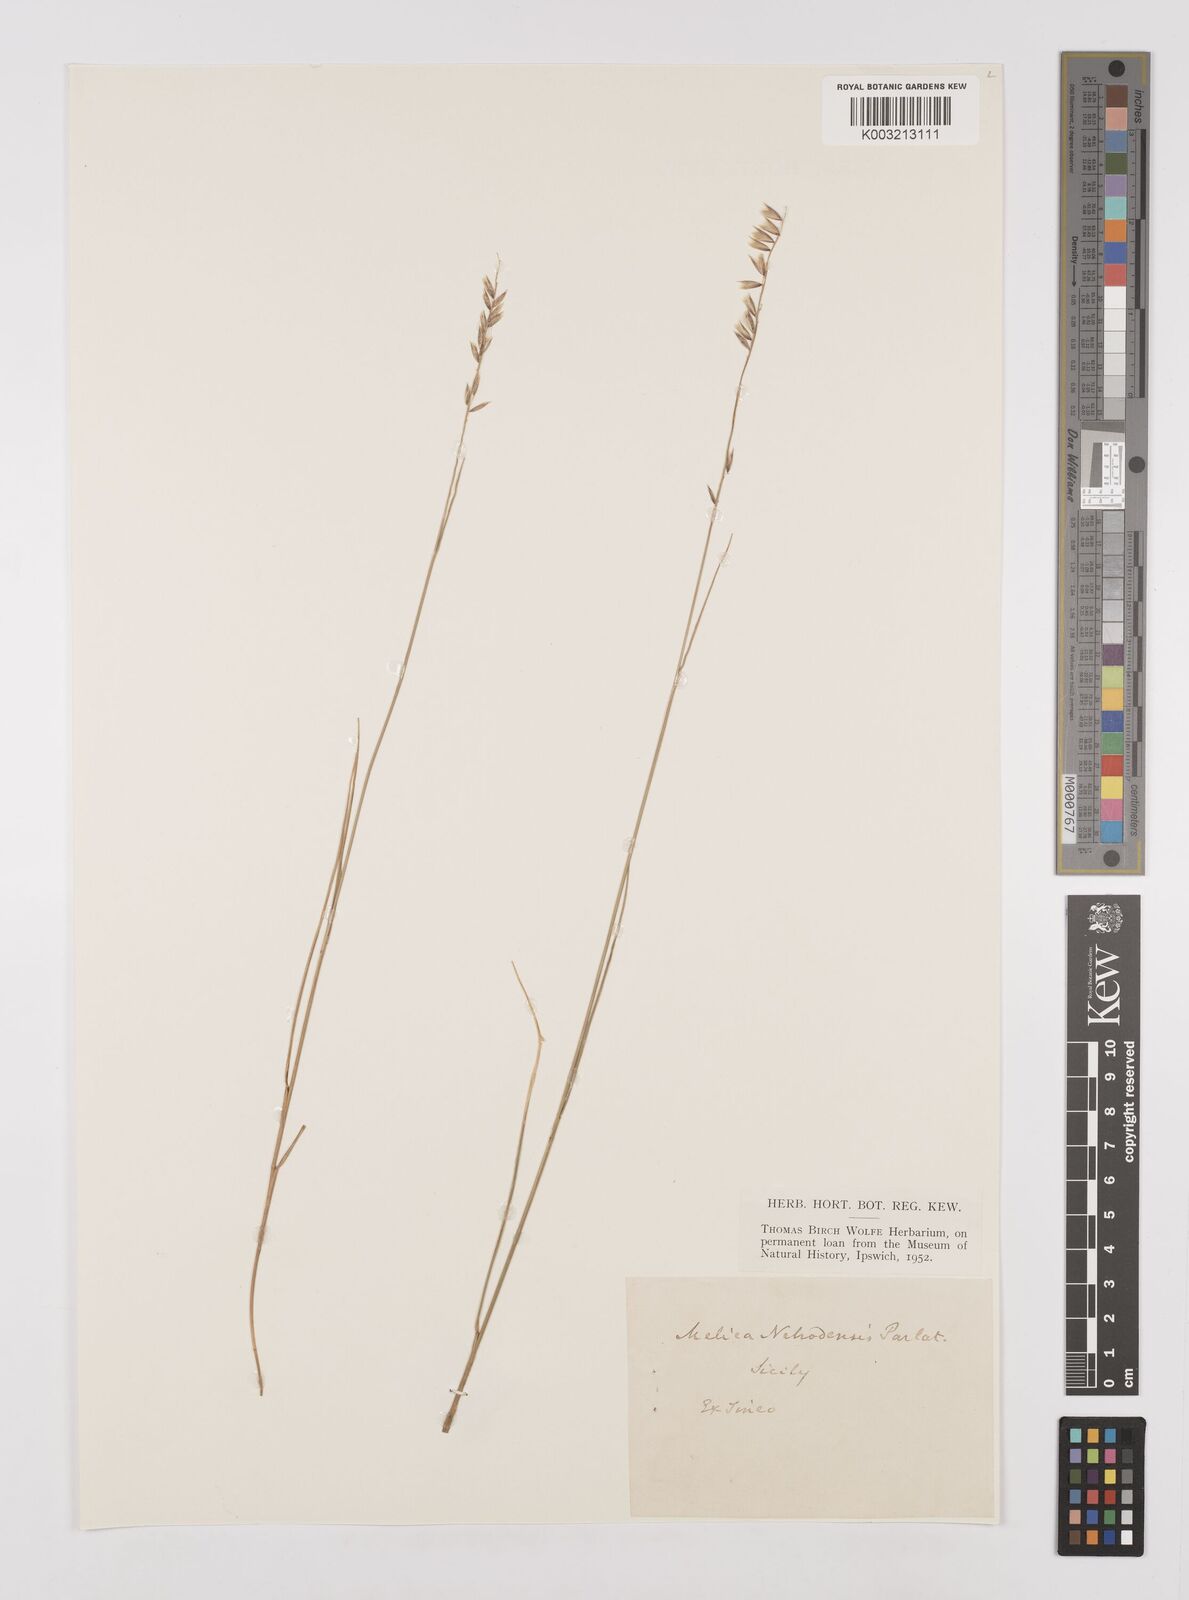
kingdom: Plantae
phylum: Tracheophyta
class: Liliopsida
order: Poales
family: Poaceae
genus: Melica
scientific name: Melica ciliata
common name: Hairy melicgrass
